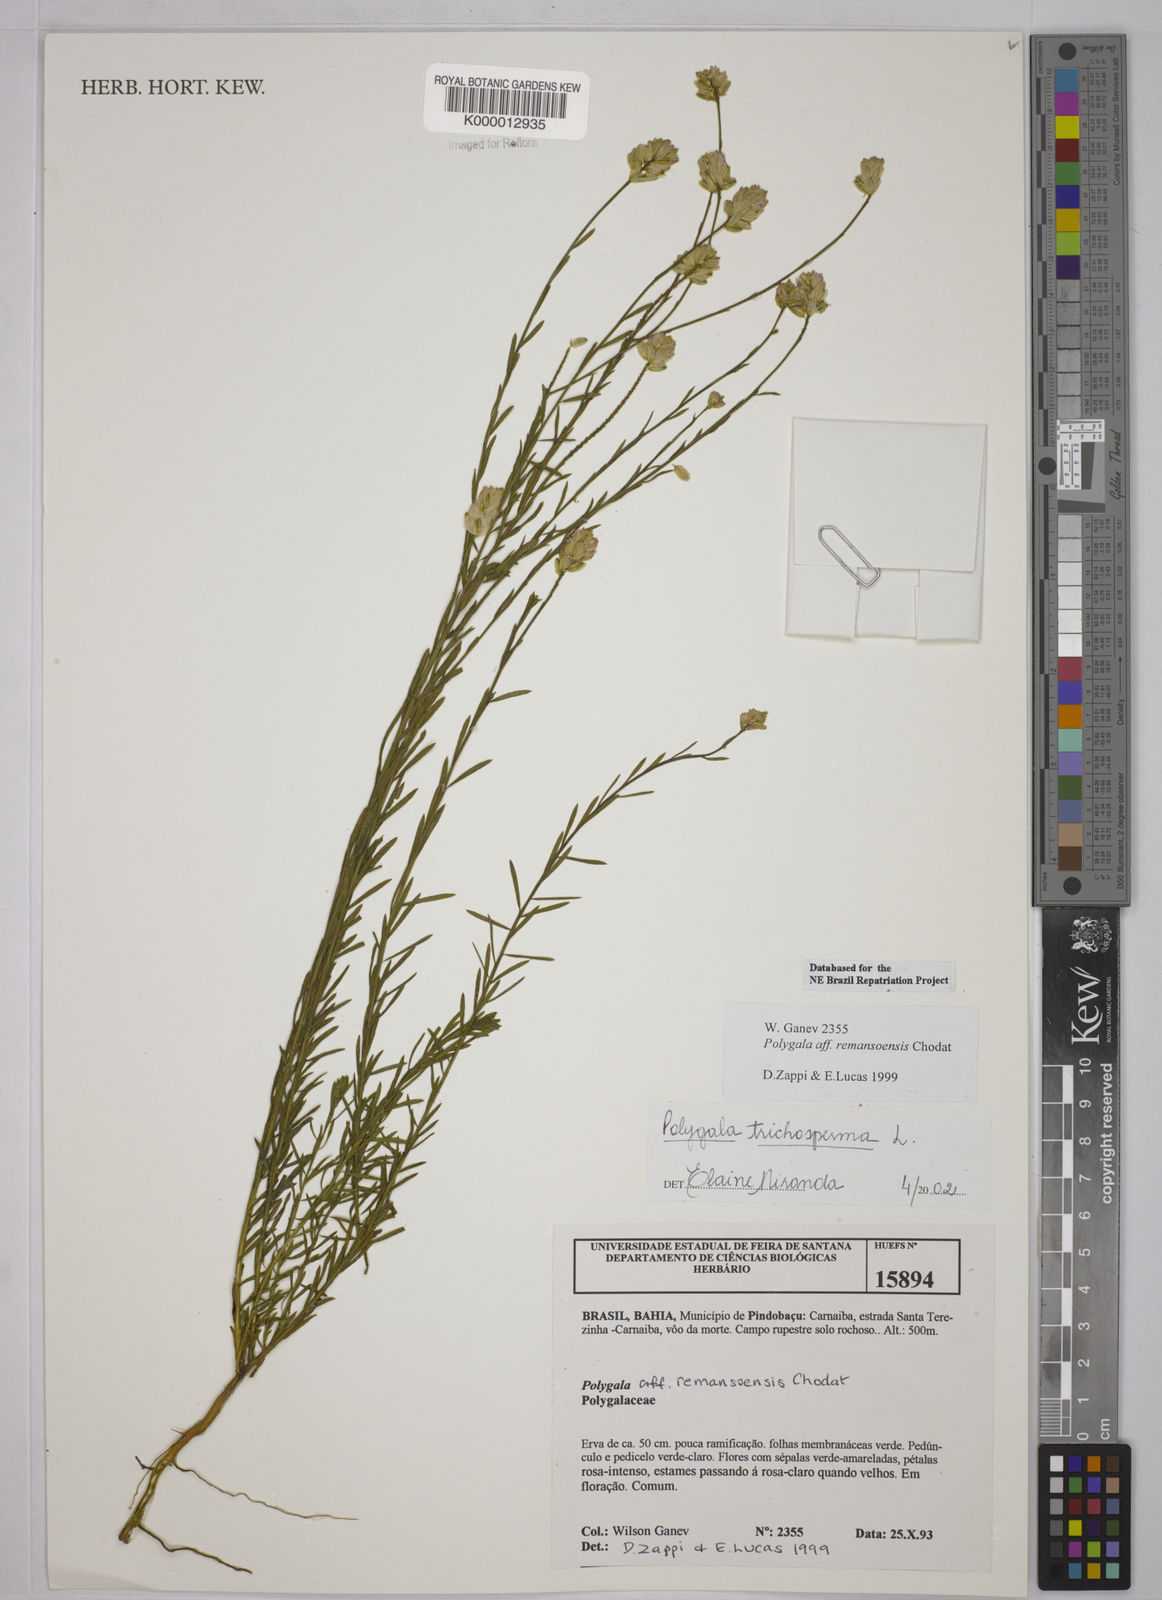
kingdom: Plantae
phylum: Tracheophyta
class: Magnoliopsida
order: Fabales
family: Polygalaceae
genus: Polygala
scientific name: Polygala
